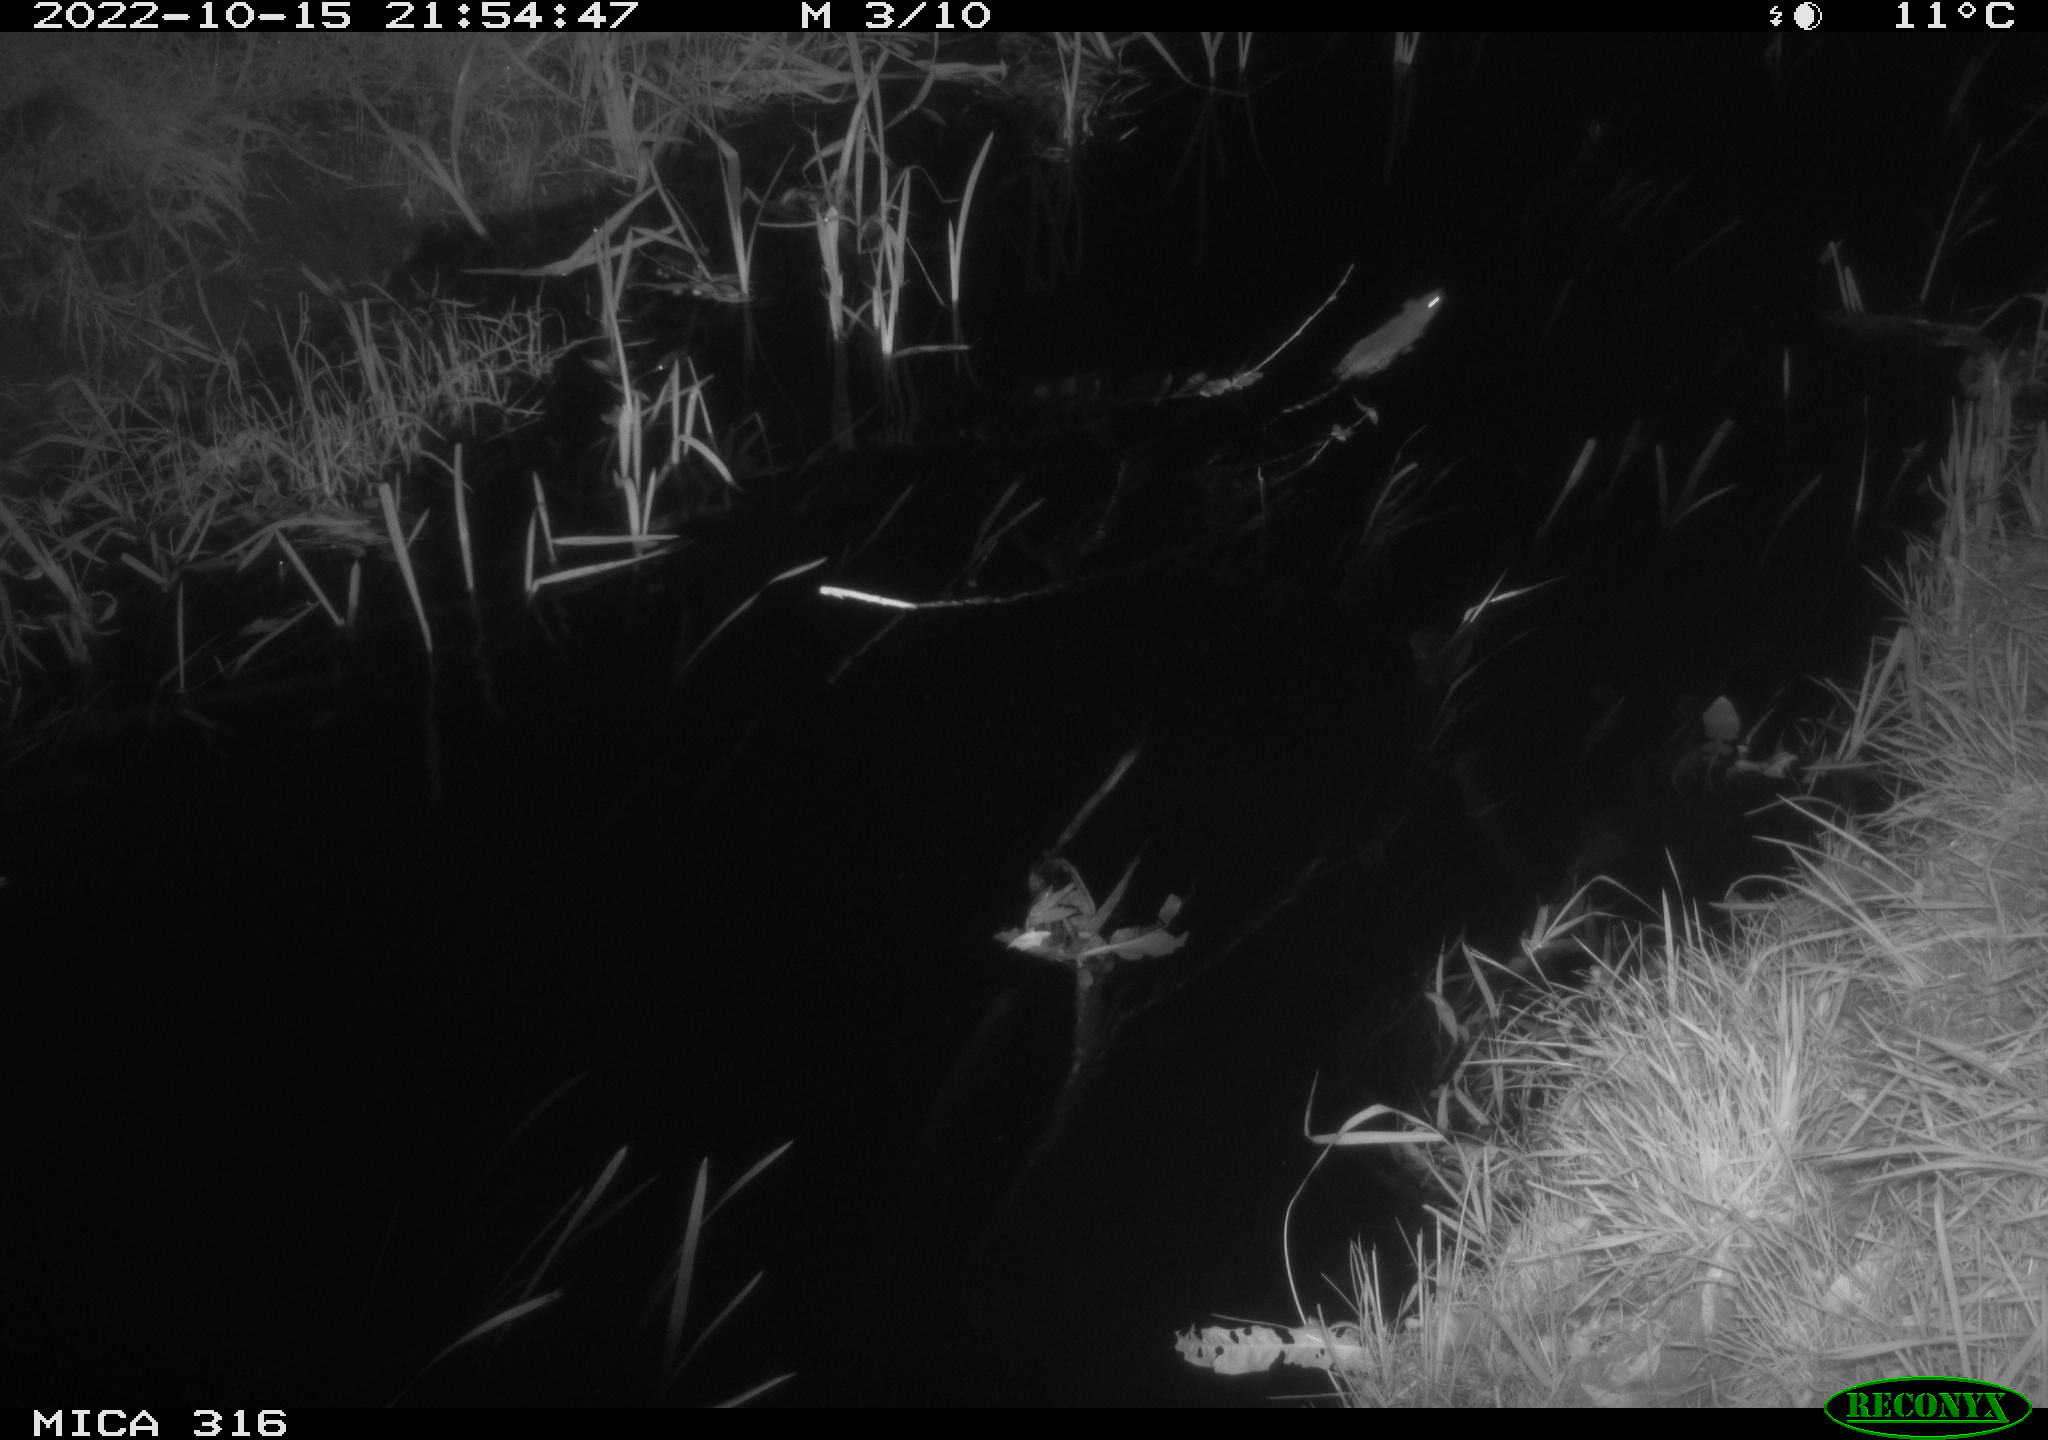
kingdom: Animalia
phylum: Chordata
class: Mammalia
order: Rodentia
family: Muridae
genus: Rattus
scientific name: Rattus norvegicus
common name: Brown rat
